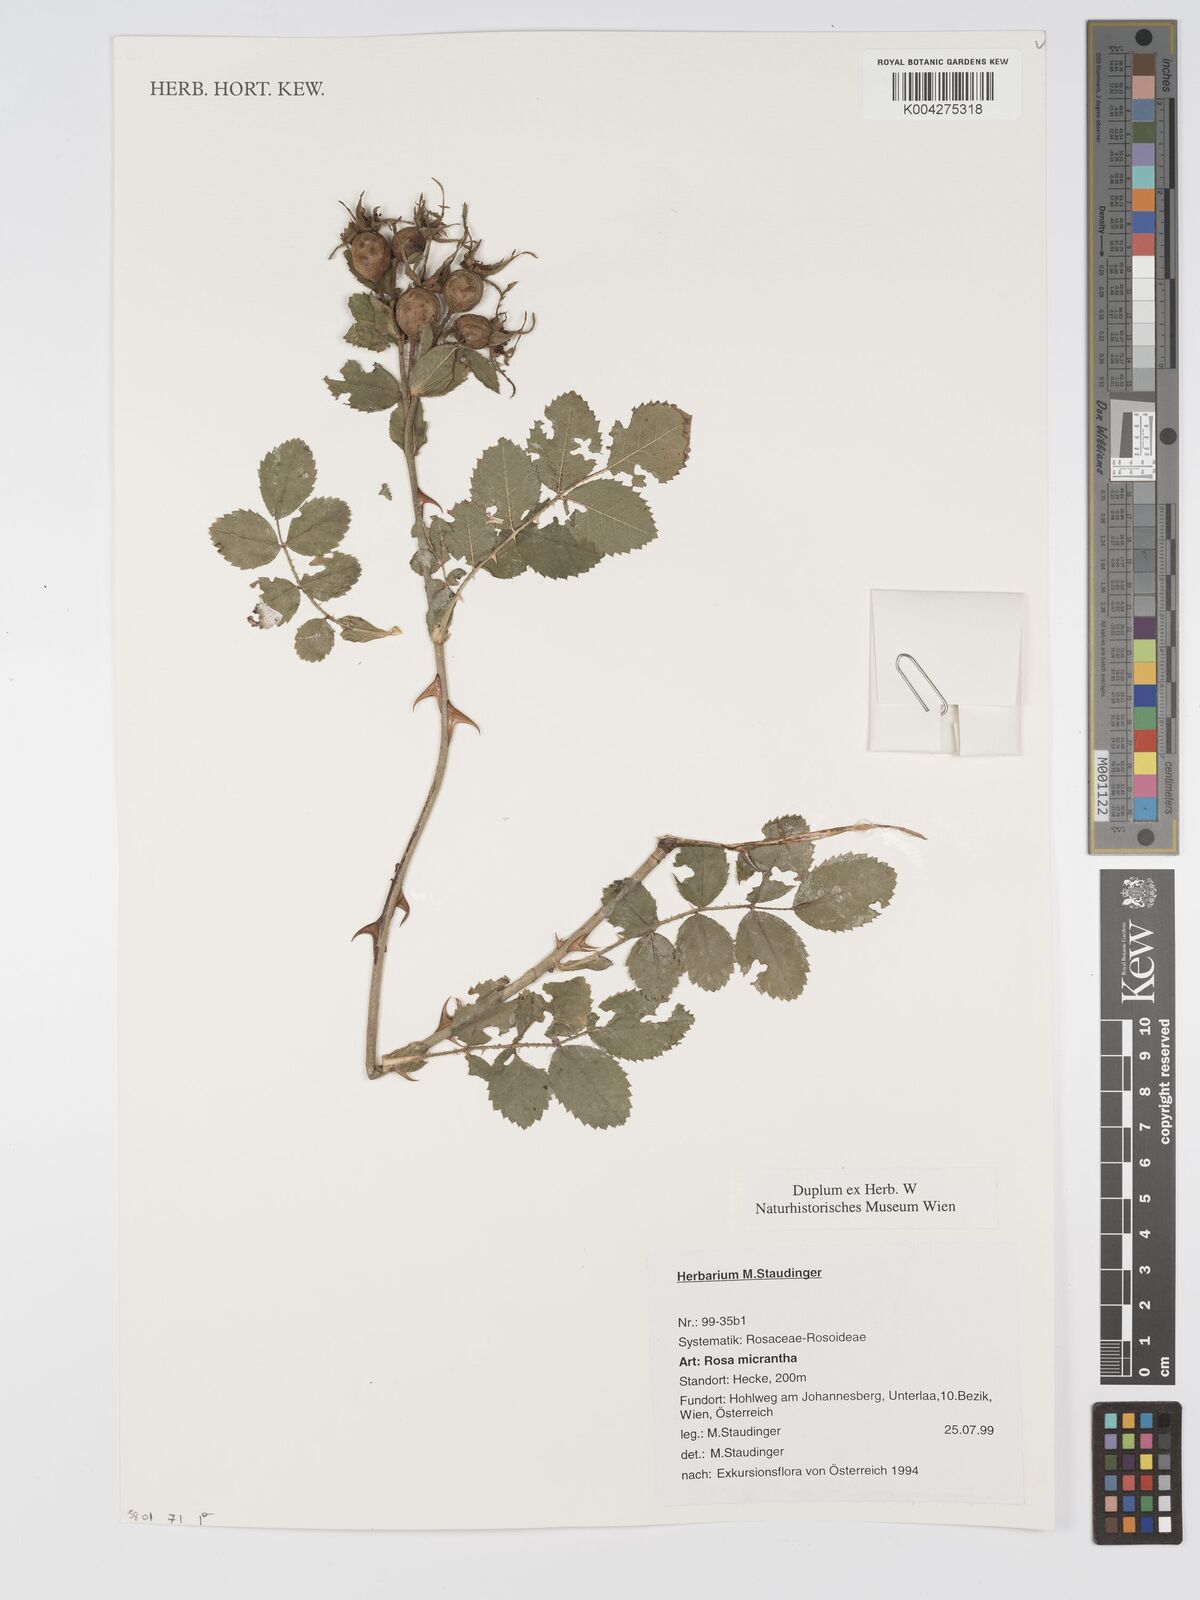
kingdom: Plantae
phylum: Tracheophyta
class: Magnoliopsida
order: Rosales
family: Rosaceae
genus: Rosa
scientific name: Rosa
